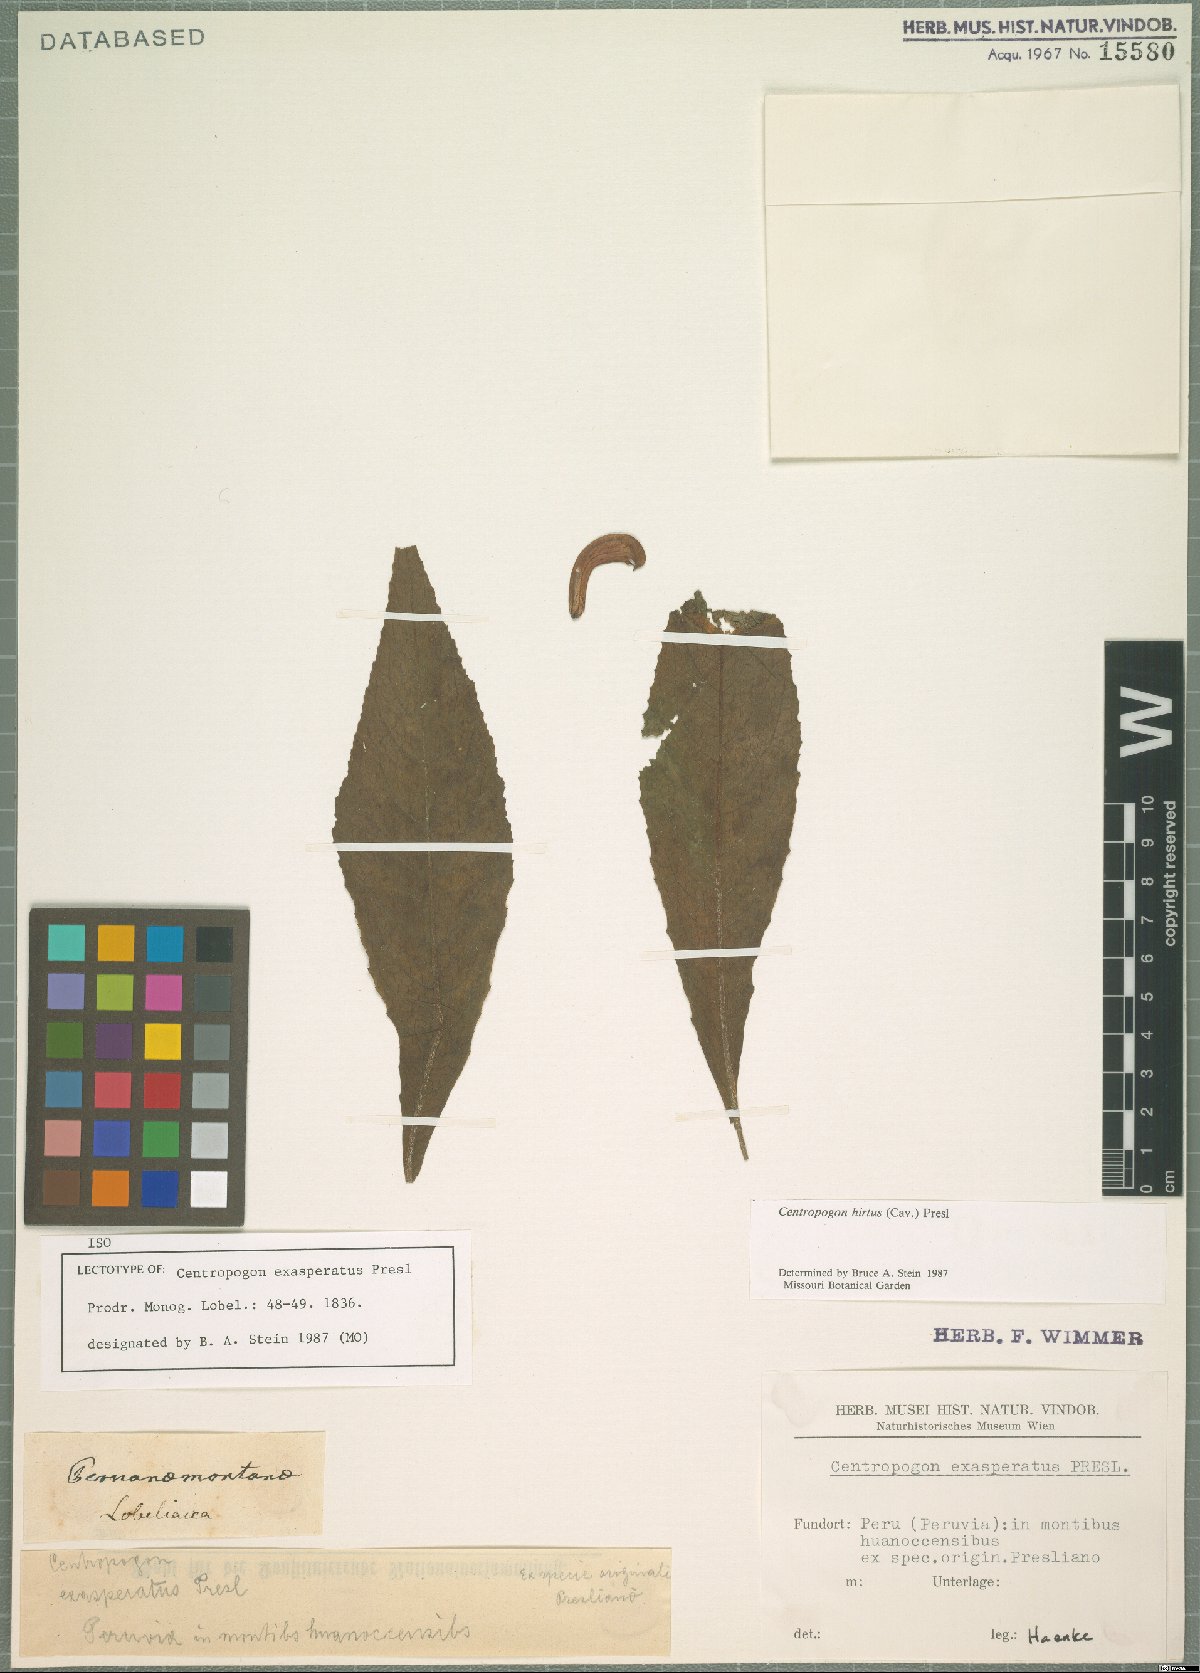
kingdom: Plantae
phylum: Tracheophyta
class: Magnoliopsida
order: Asterales
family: Campanulaceae
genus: Centropogon
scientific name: Centropogon hirtus
